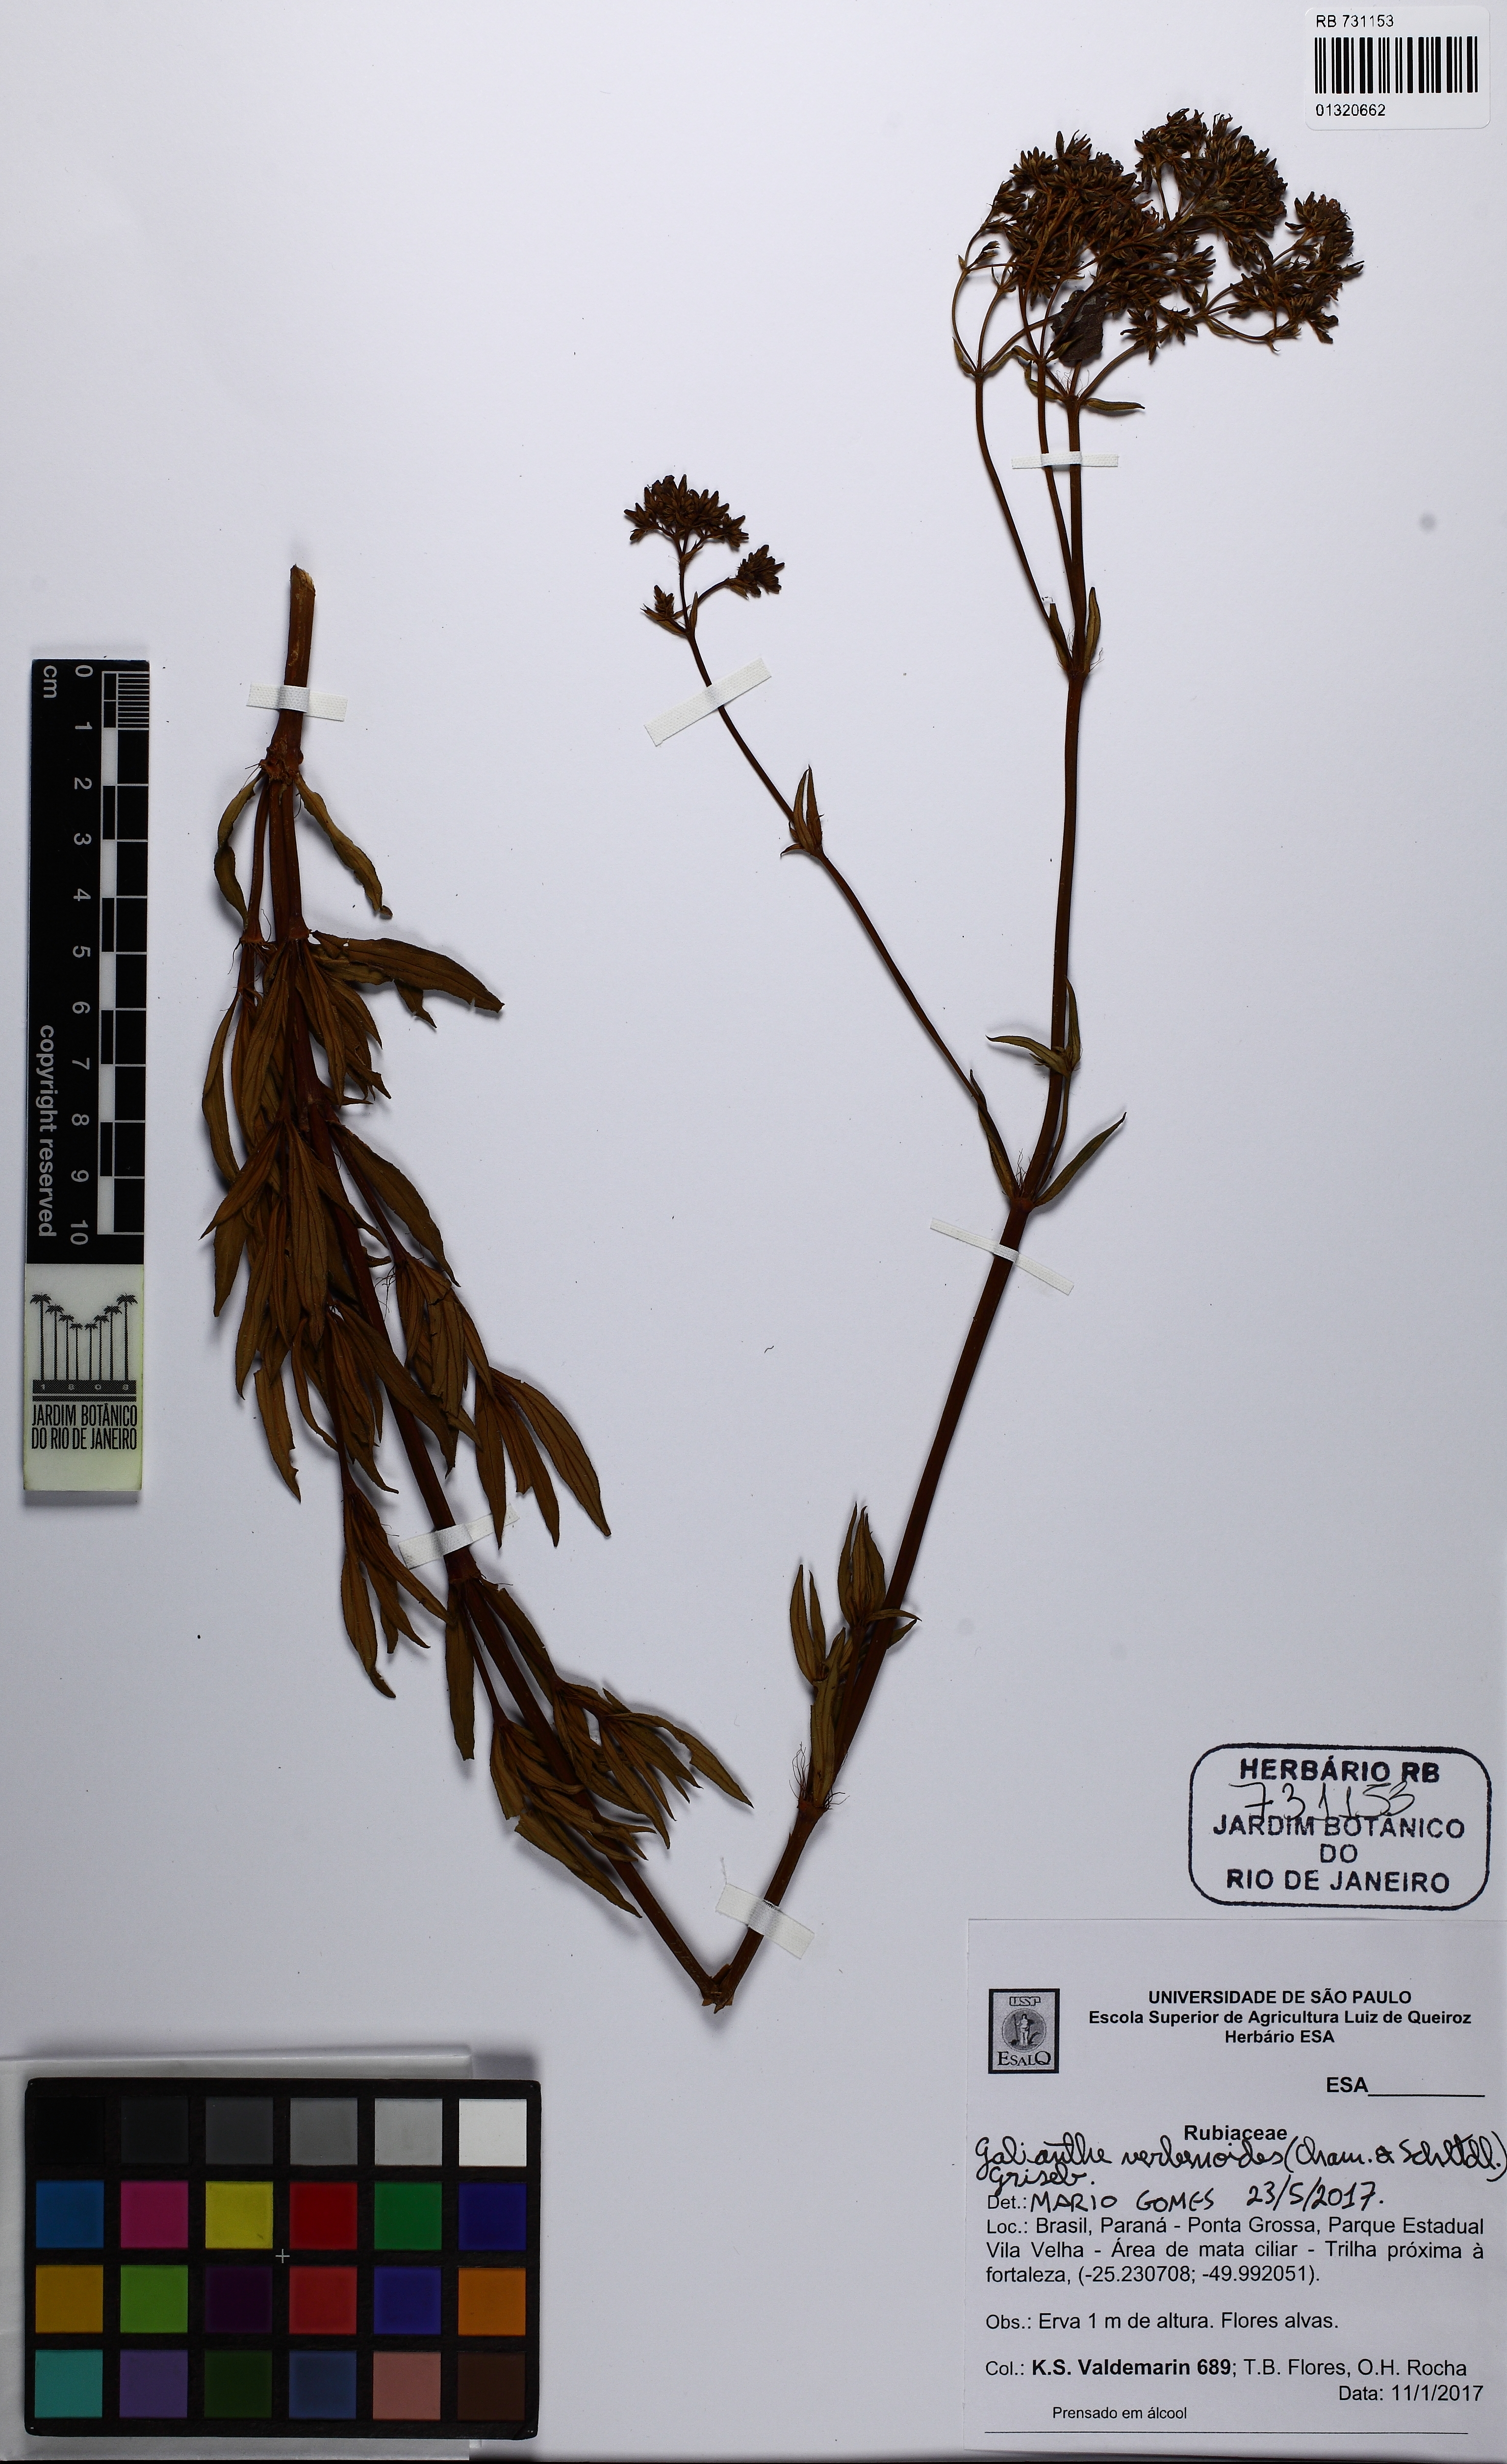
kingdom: Plantae
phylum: Tracheophyta
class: Magnoliopsida
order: Gentianales
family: Rubiaceae
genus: Galianthe
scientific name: Galianthe verbenoides
